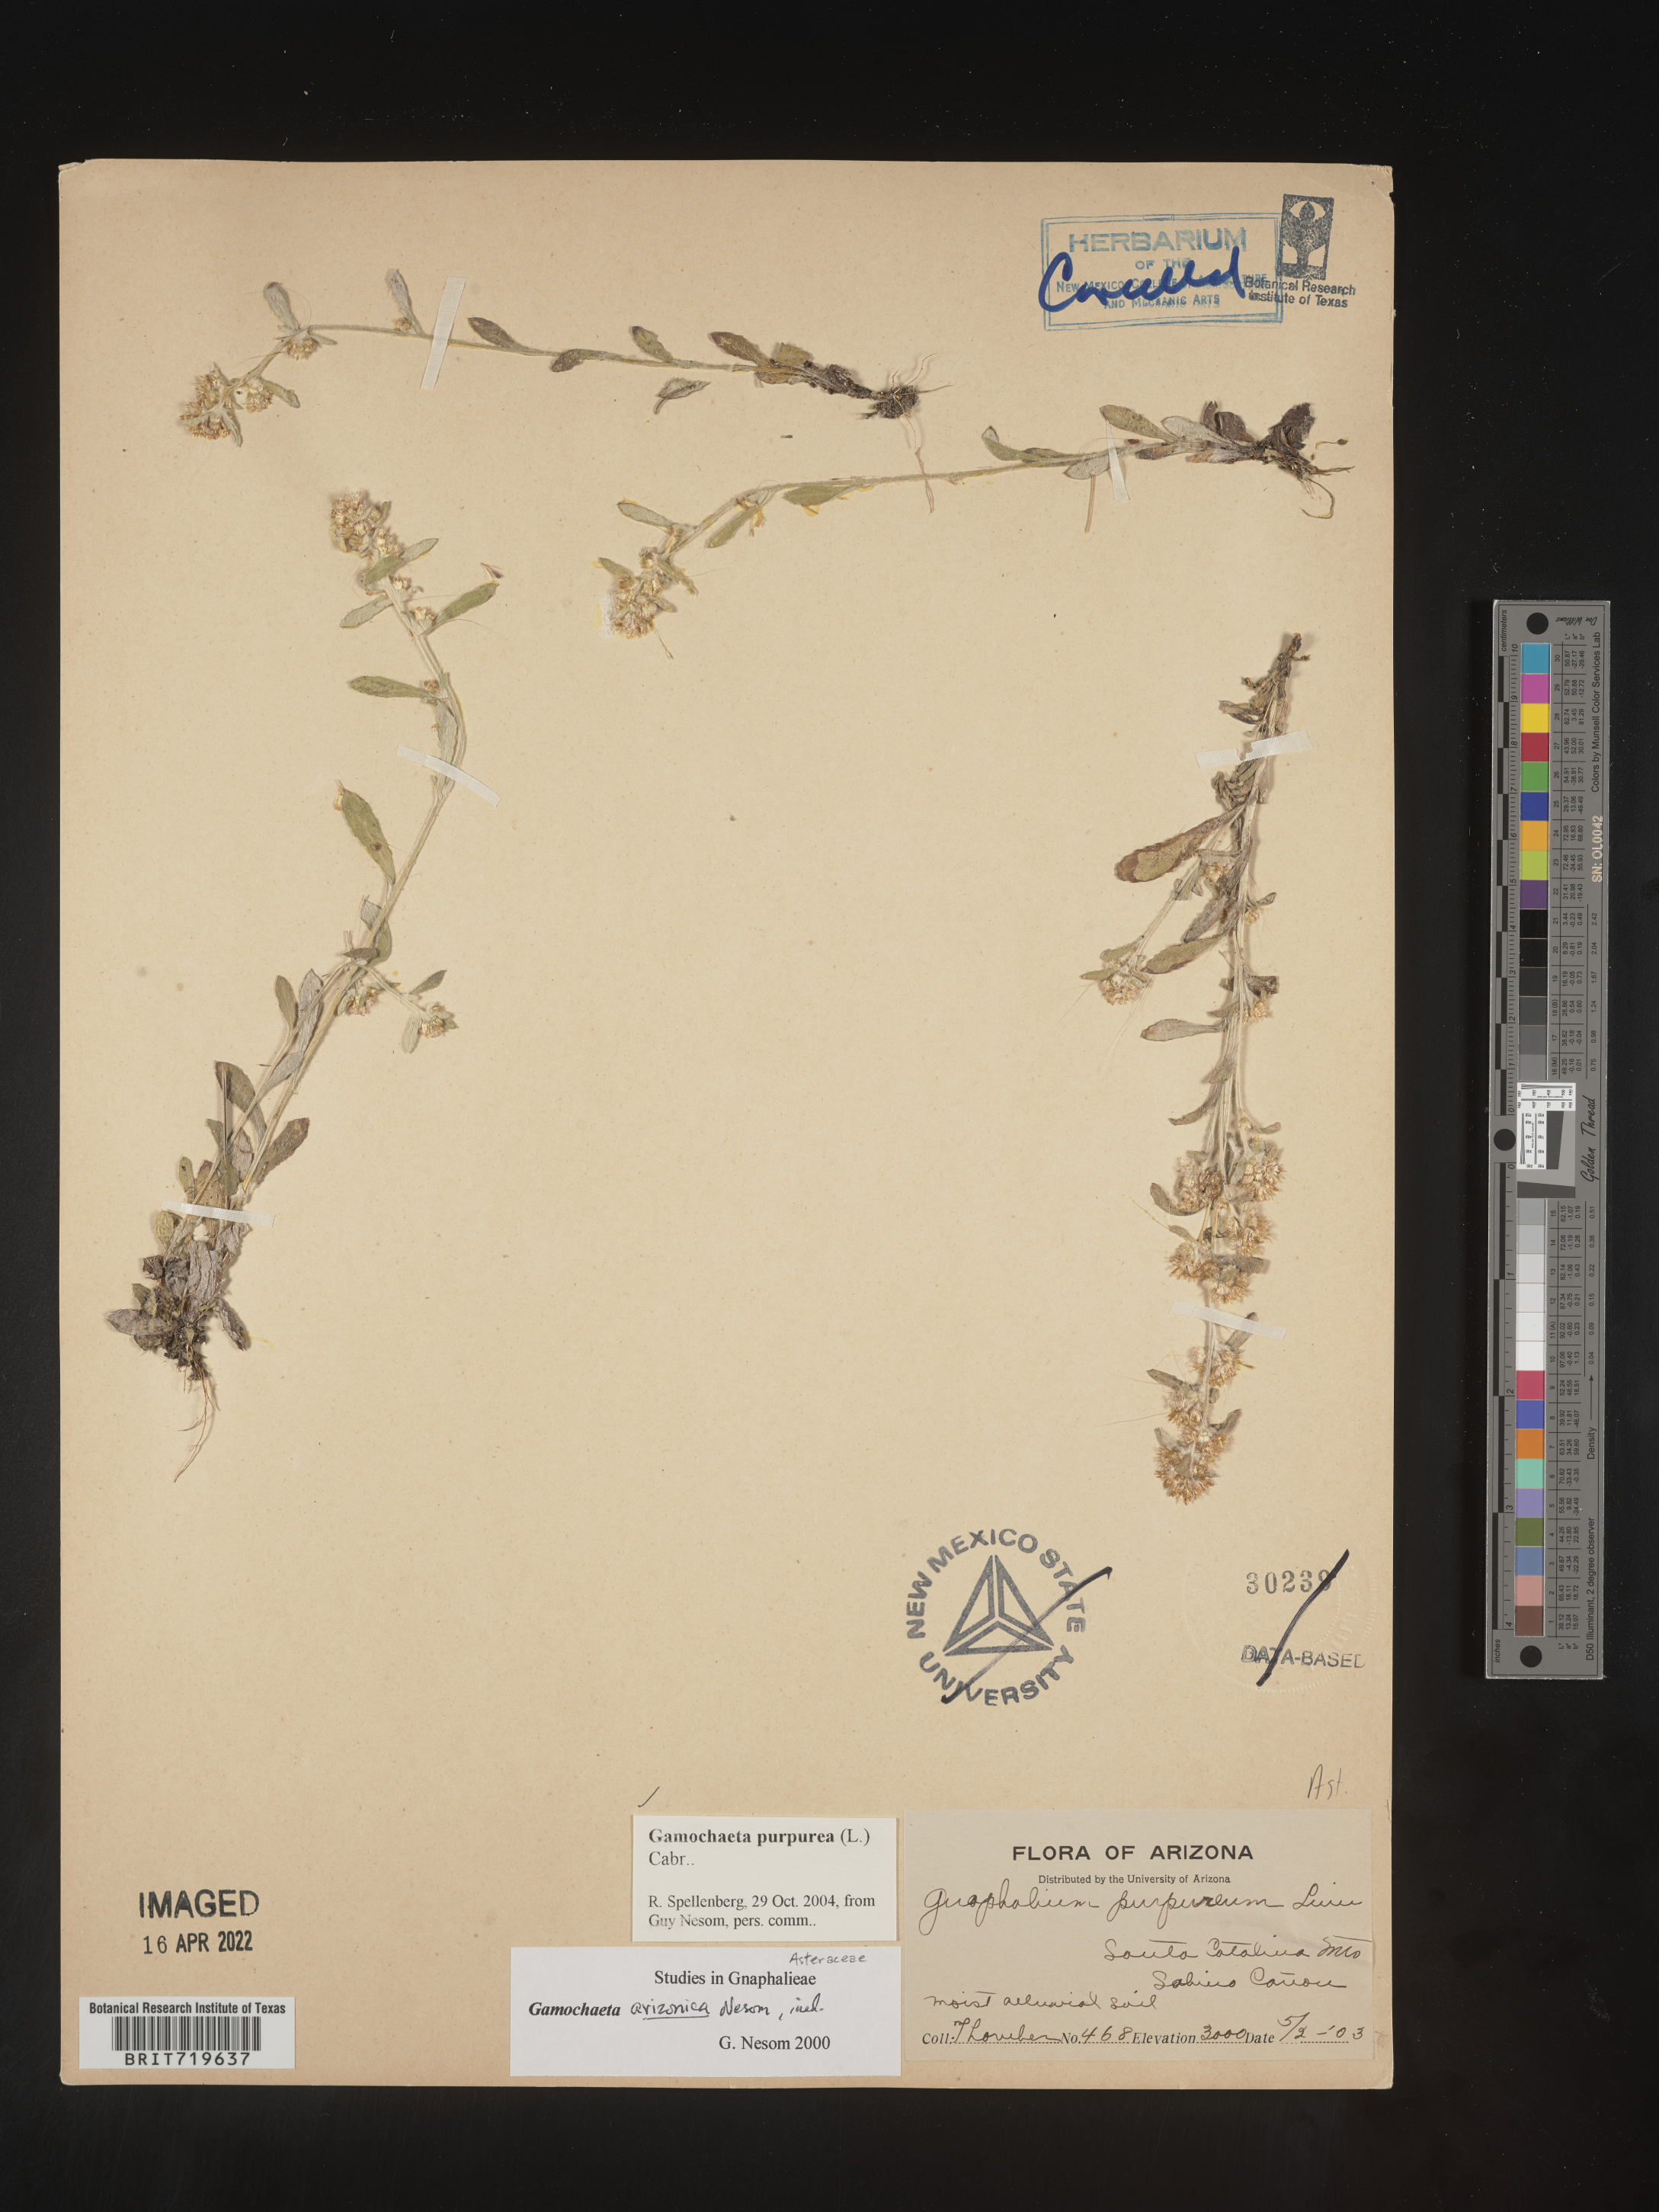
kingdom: Plantae
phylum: Tracheophyta
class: Magnoliopsida
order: Asterales
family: Asteraceae
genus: Gamochaeta
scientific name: Gamochaeta purpurea
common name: Purple cudweed
